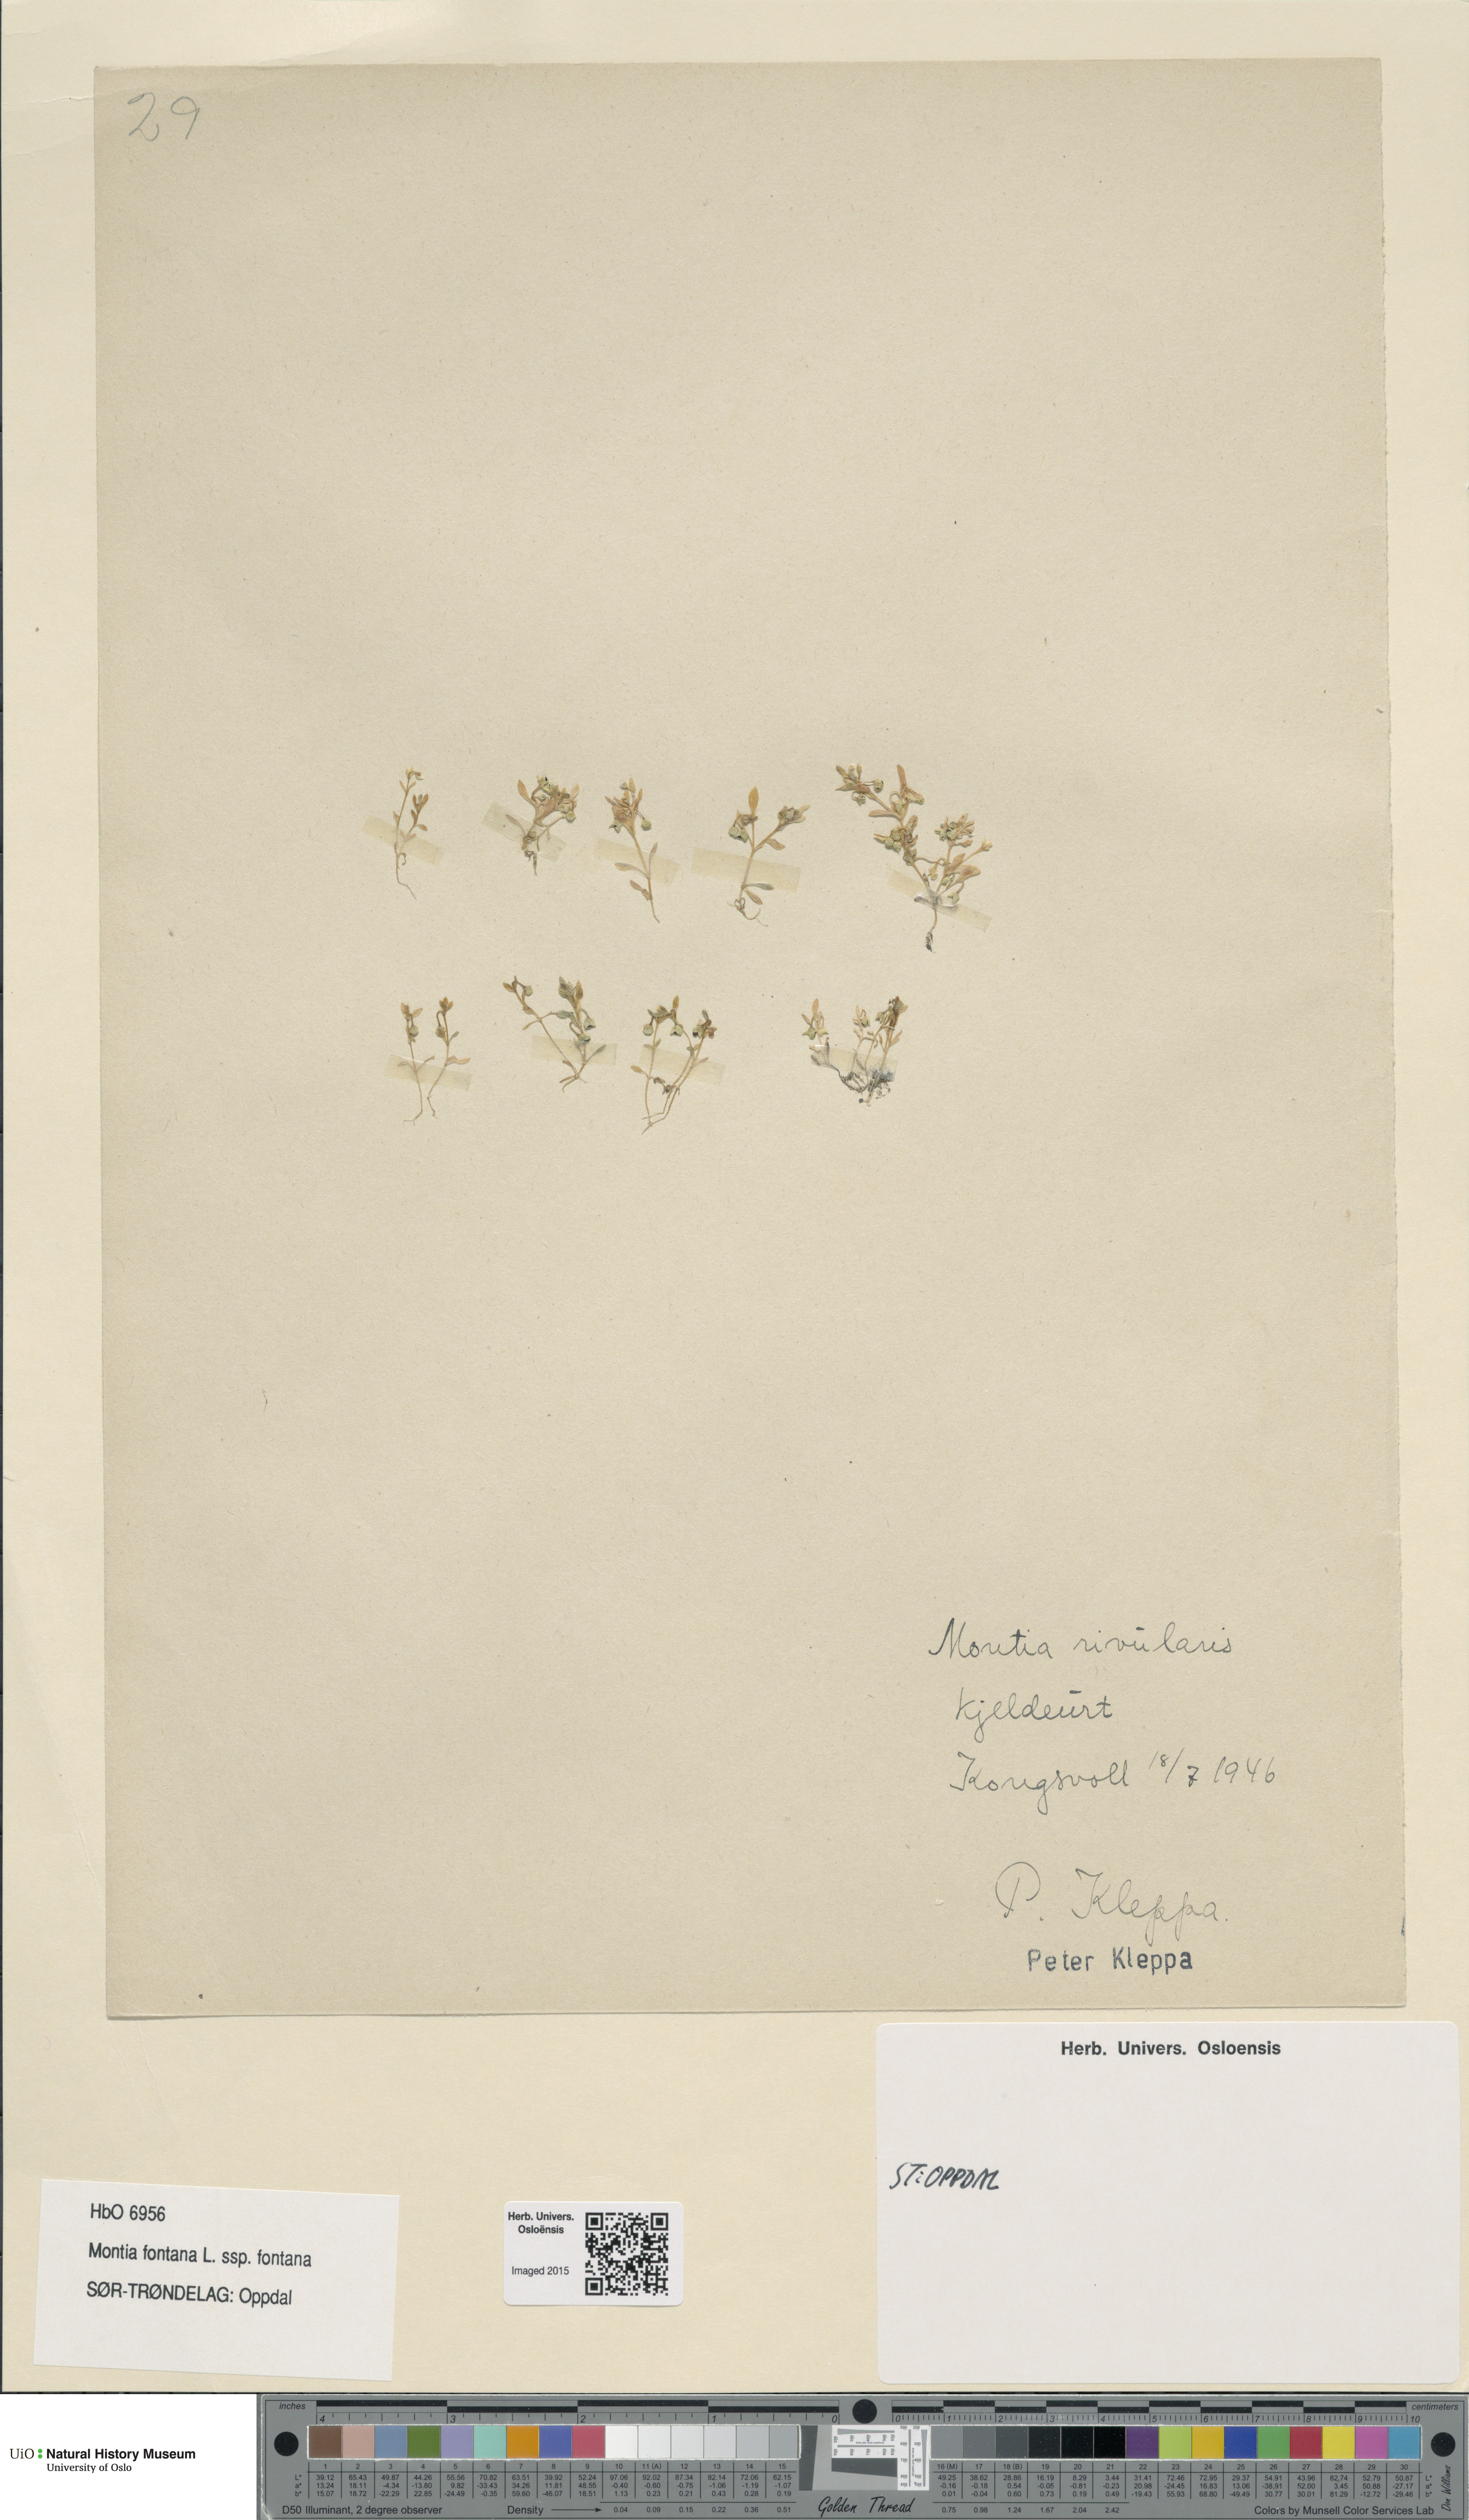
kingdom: Plantae
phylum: Tracheophyta
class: Magnoliopsida
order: Caryophyllales
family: Montiaceae
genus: Montia
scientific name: Montia fontana
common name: Blinks
